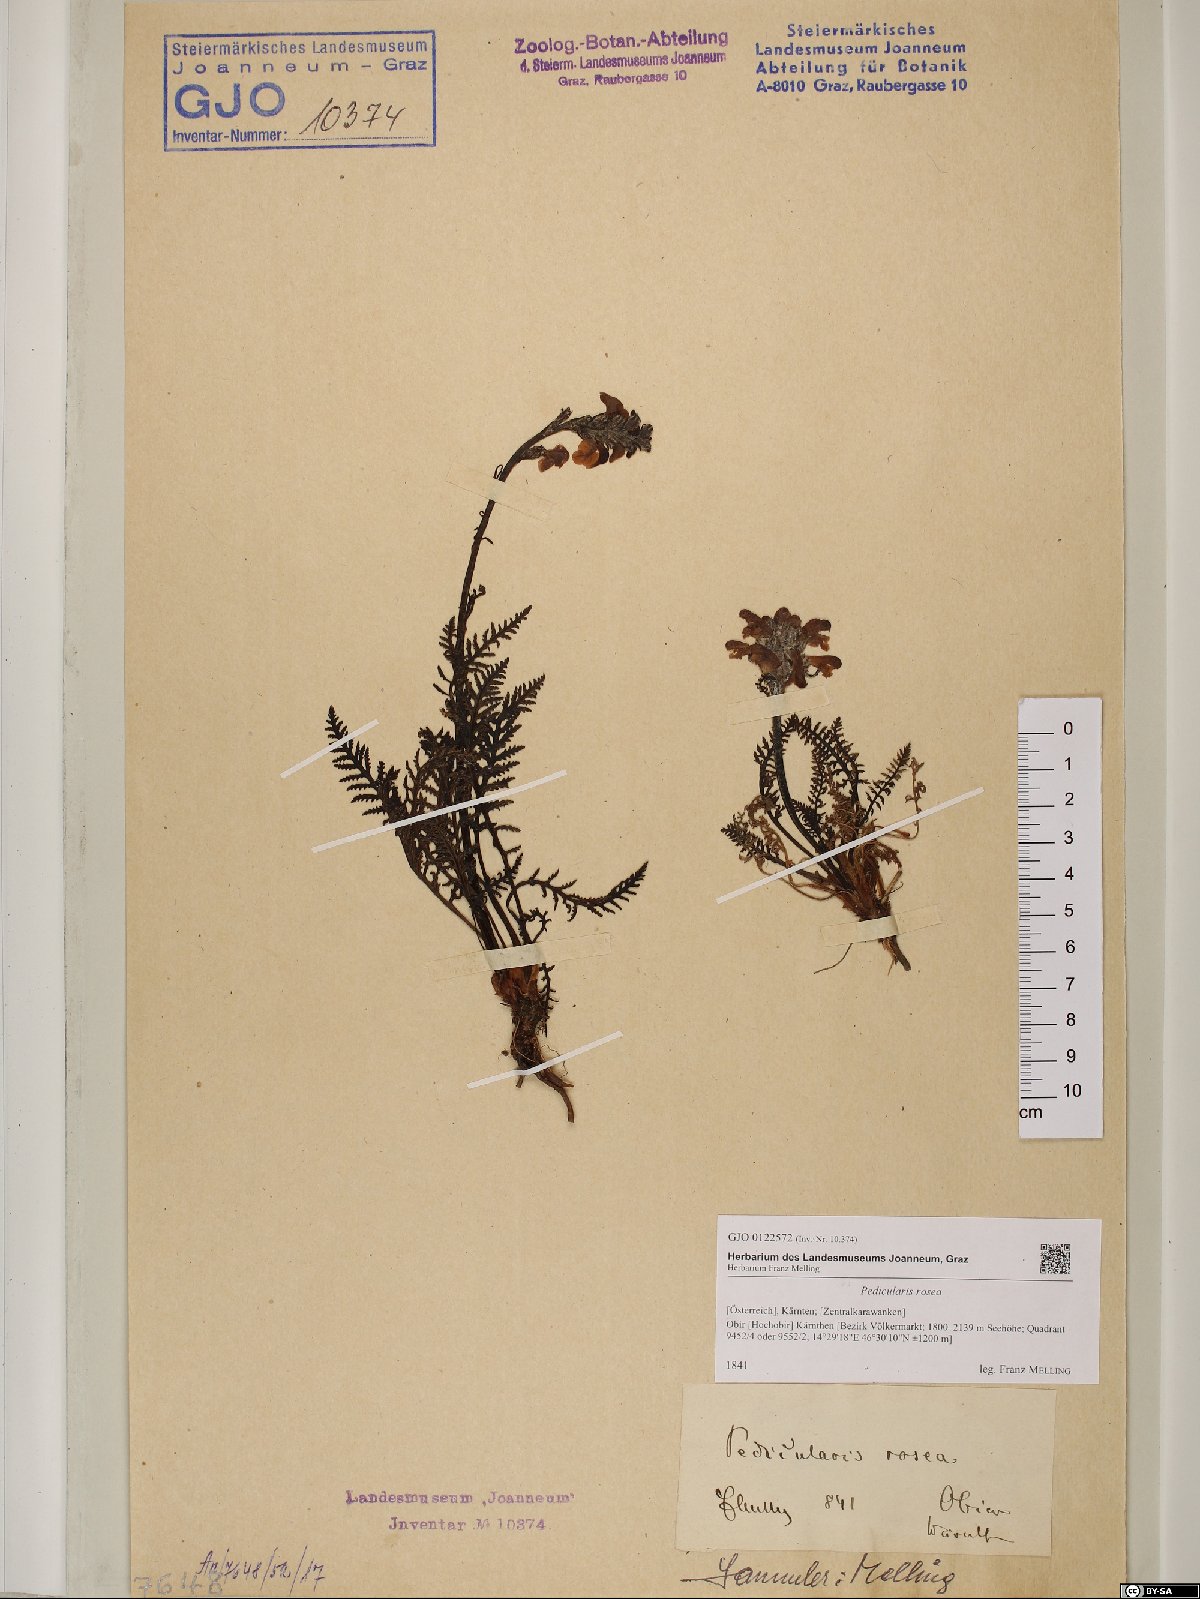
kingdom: Plantae
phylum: Tracheophyta
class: Magnoliopsida
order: Lamiales
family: Orobanchaceae
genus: Pedicularis
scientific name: Pedicularis rosea
